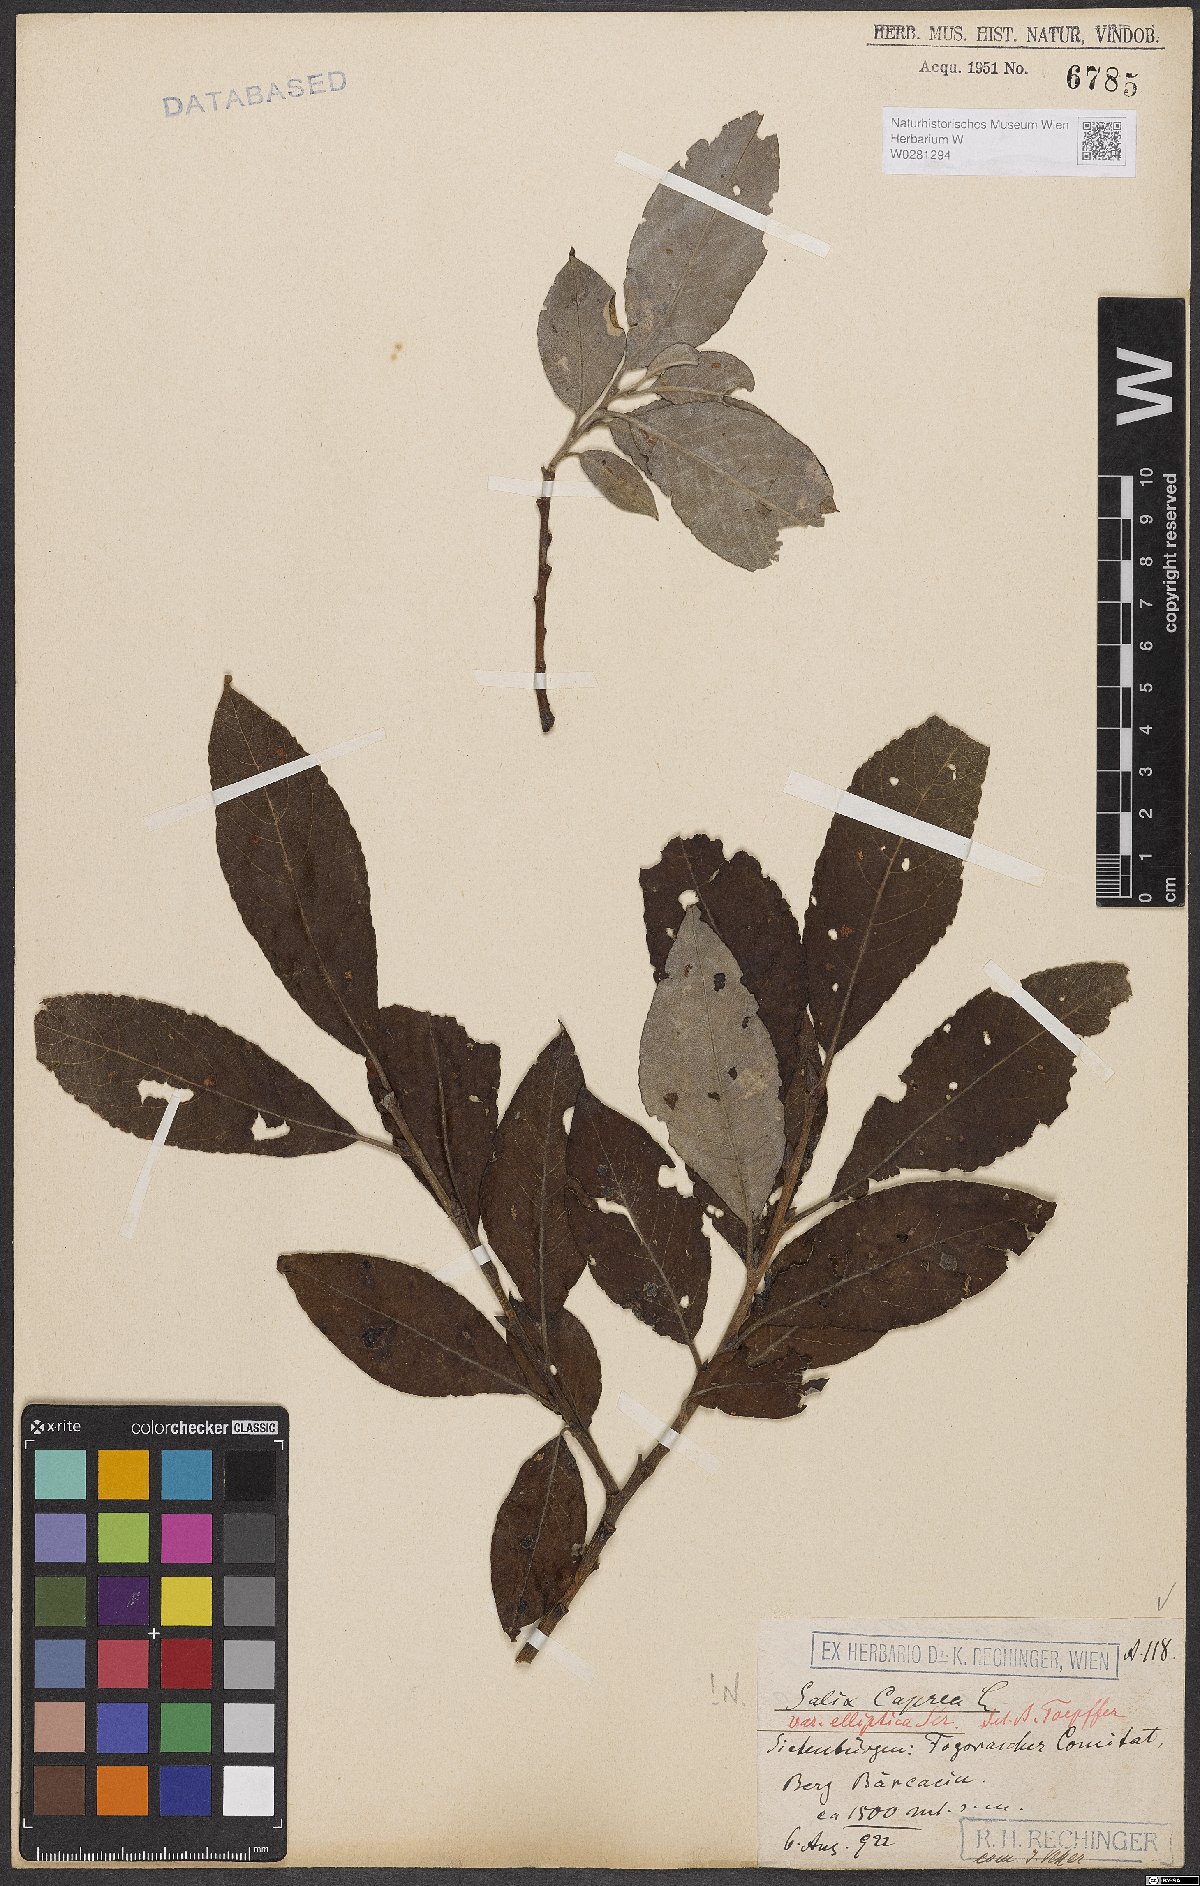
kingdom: Plantae
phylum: Tracheophyta
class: Magnoliopsida
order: Malpighiales
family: Salicaceae
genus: Salix
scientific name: Salix caprea
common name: Goat willow
